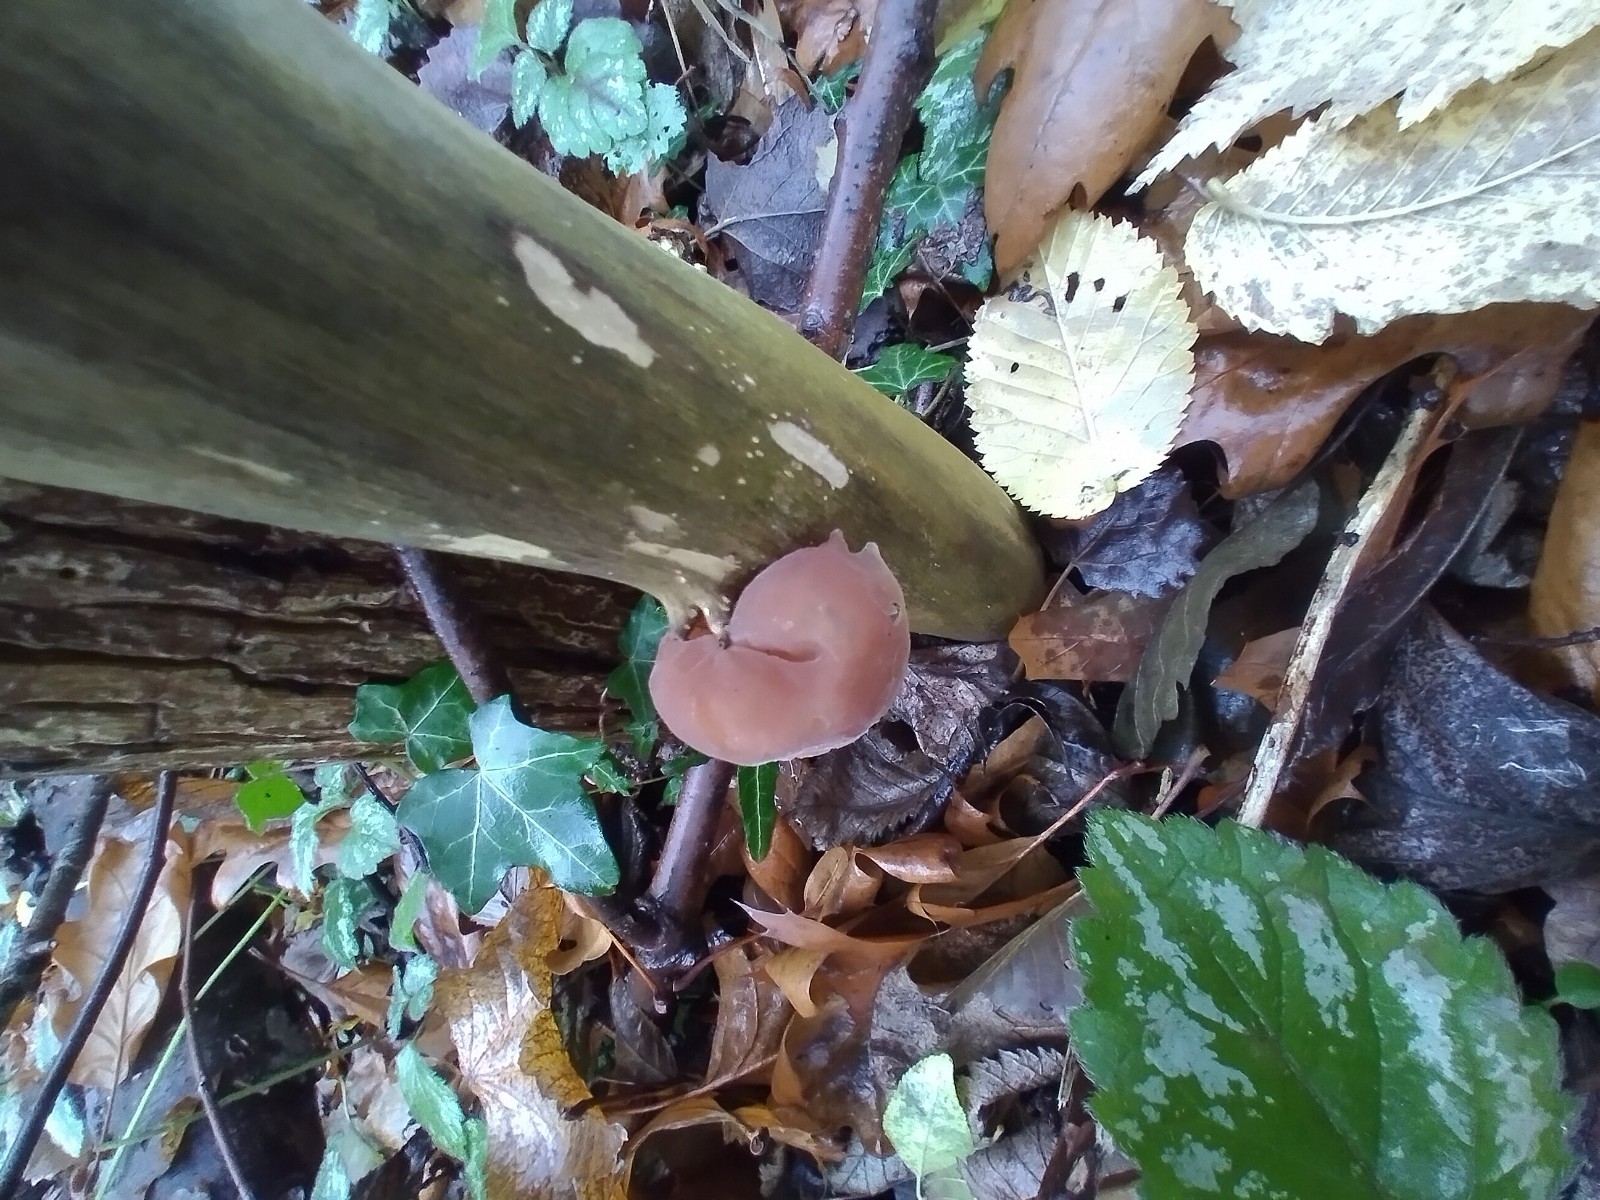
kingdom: Fungi
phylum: Basidiomycota
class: Agaricomycetes
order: Auriculariales
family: Auriculariaceae
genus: Auricularia
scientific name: Auricularia auricula-judae
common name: almindelig judasøre
